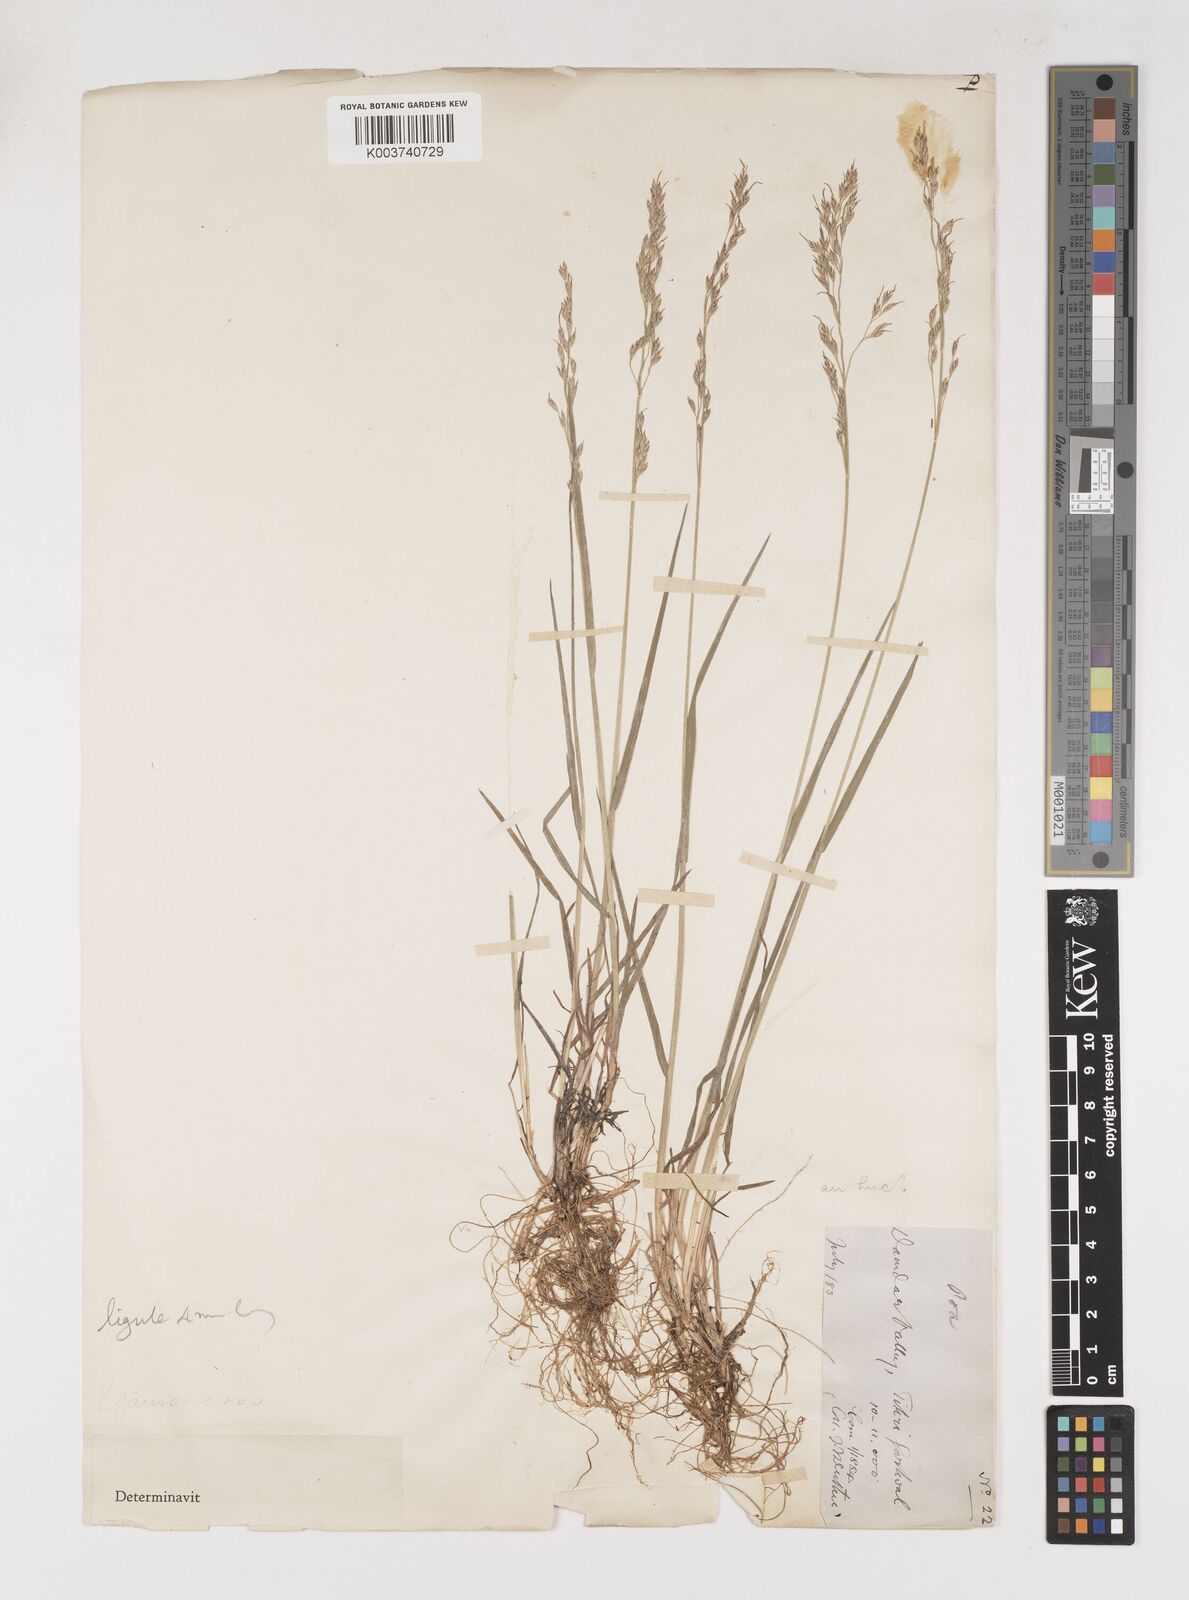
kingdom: Plantae
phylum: Tracheophyta
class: Liliopsida
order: Poales
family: Poaceae
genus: Poa
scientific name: Poa jaunsarensis
